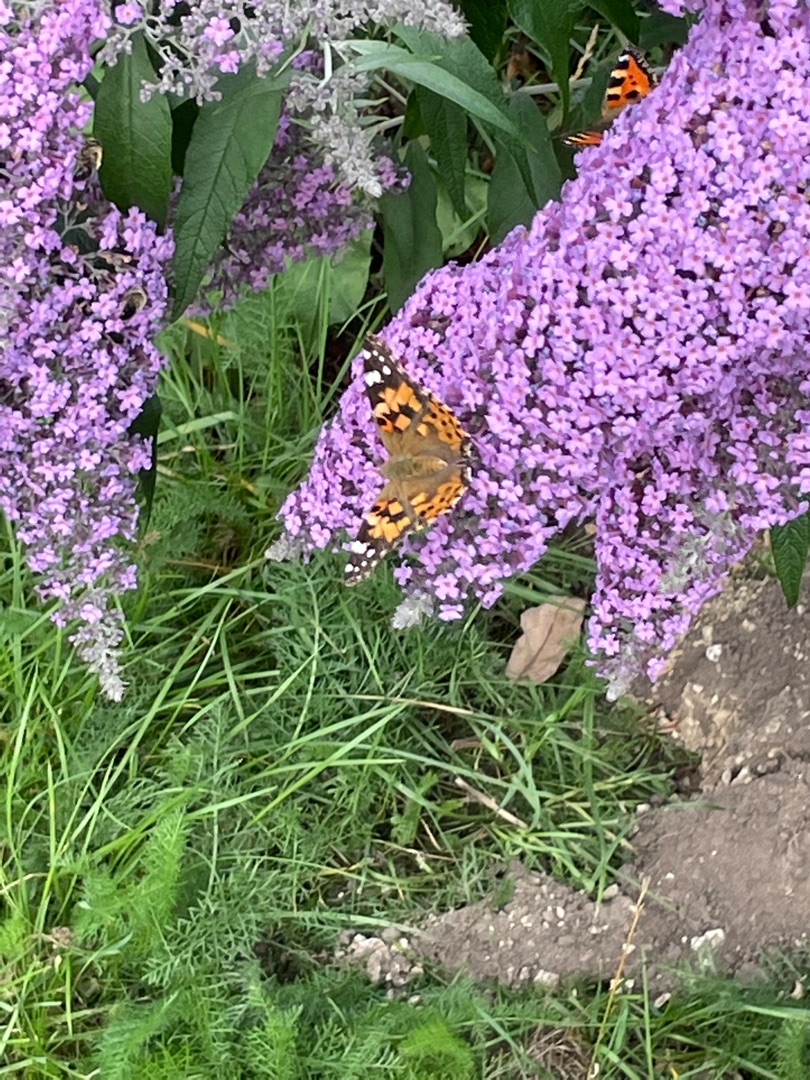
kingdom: Animalia
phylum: Arthropoda
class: Insecta
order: Lepidoptera
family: Nymphalidae
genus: Vanessa
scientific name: Vanessa cardui
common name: Tidselsommerfugl
